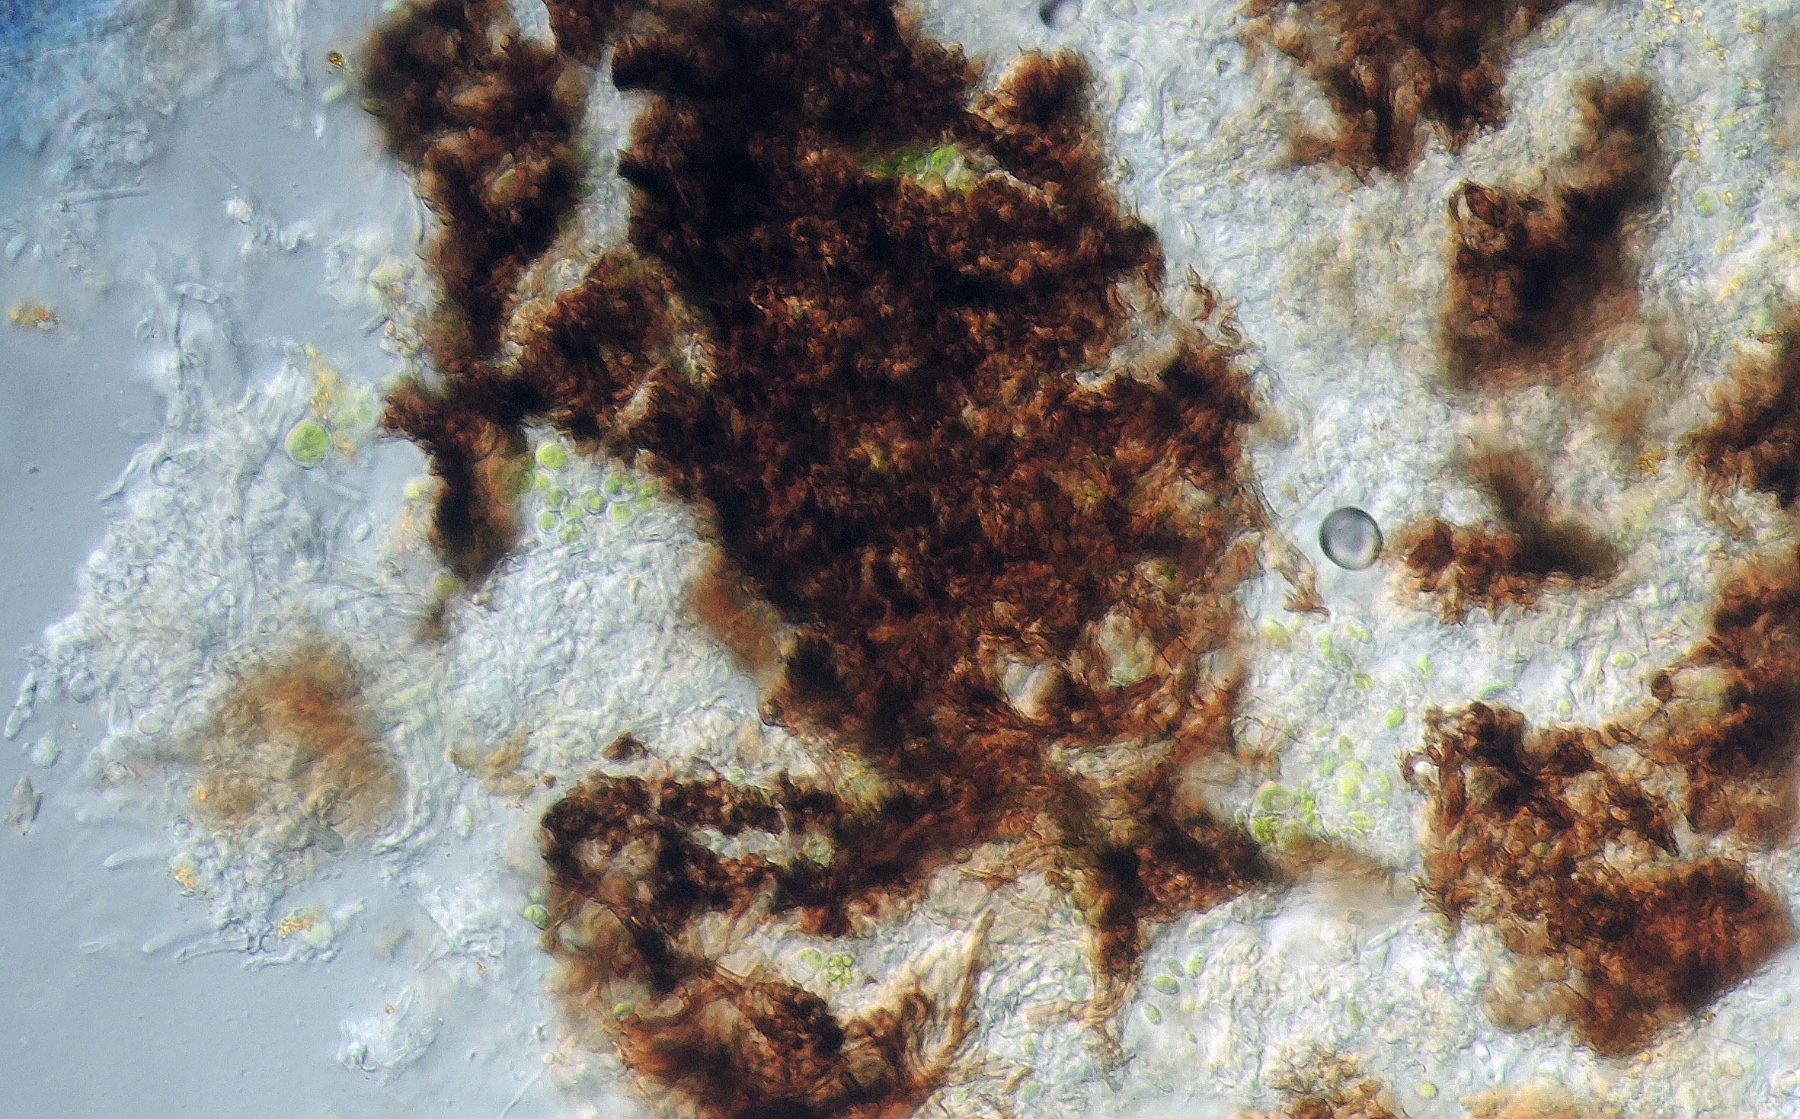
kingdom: Fungi
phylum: Ascomycota
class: Leotiomycetes
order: Leotiales
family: Mniaeciaceae
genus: Epithamnolia
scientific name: Epithamnolia xanthoriae
